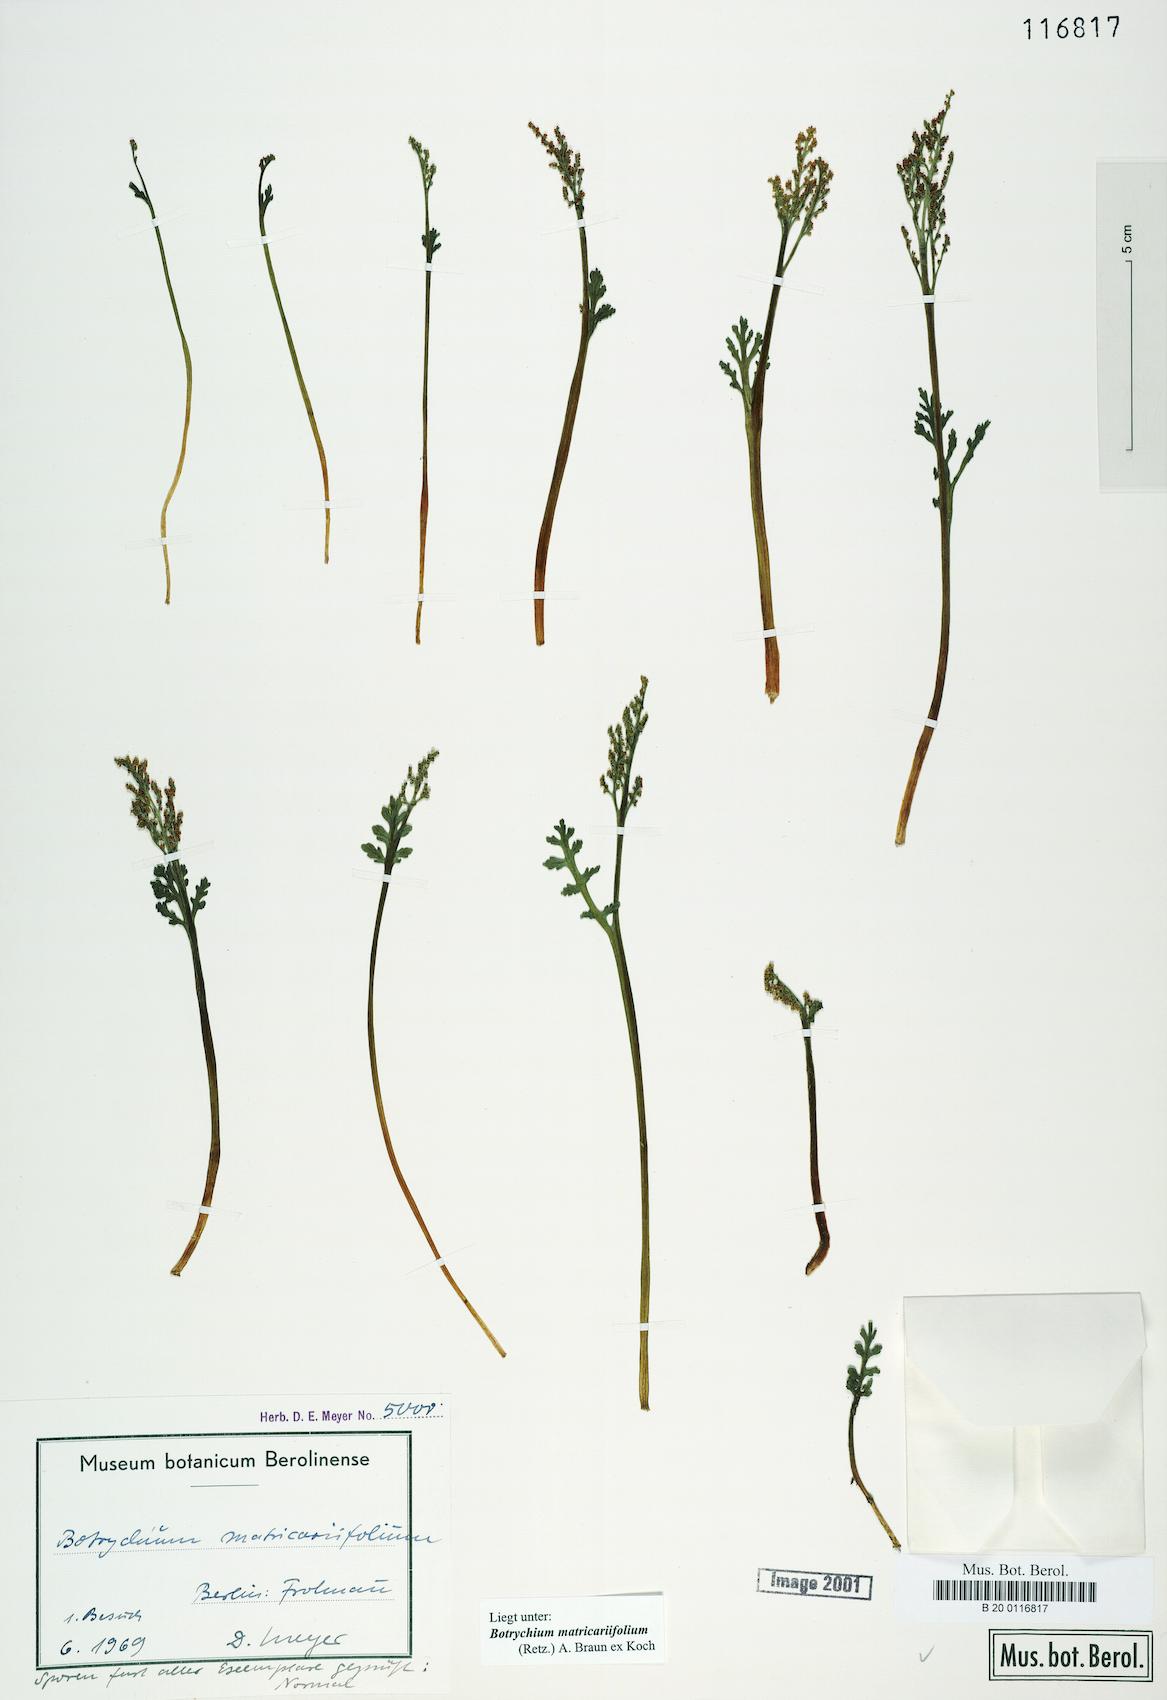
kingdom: Plantae
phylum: Tracheophyta
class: Polypodiopsida
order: Ophioglossales
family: Ophioglossaceae
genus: Botrychium
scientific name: Botrychium matricariifolium
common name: Branched moonwort
